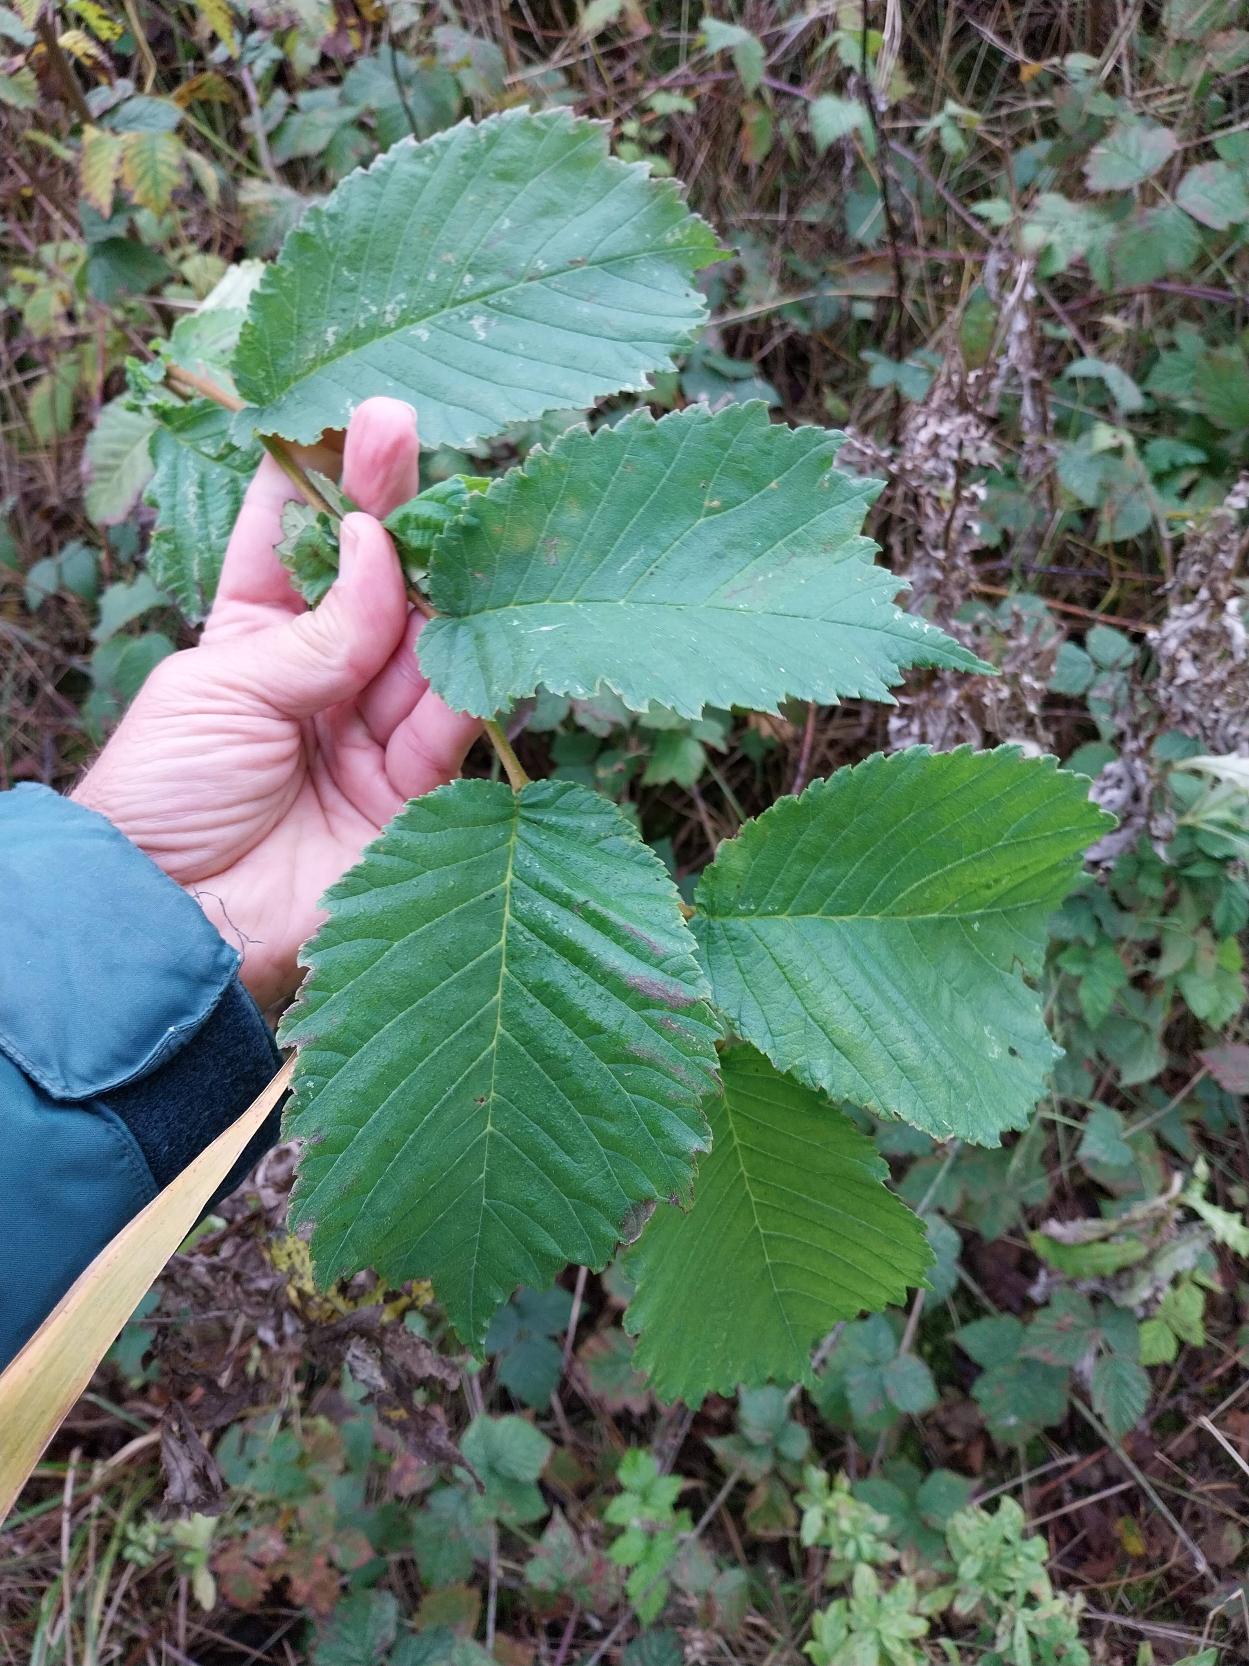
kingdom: Plantae
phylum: Tracheophyta
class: Magnoliopsida
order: Rosales
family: Ulmaceae
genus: Ulmus
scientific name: Ulmus glabra
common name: Skov-elm/storbladet elm
